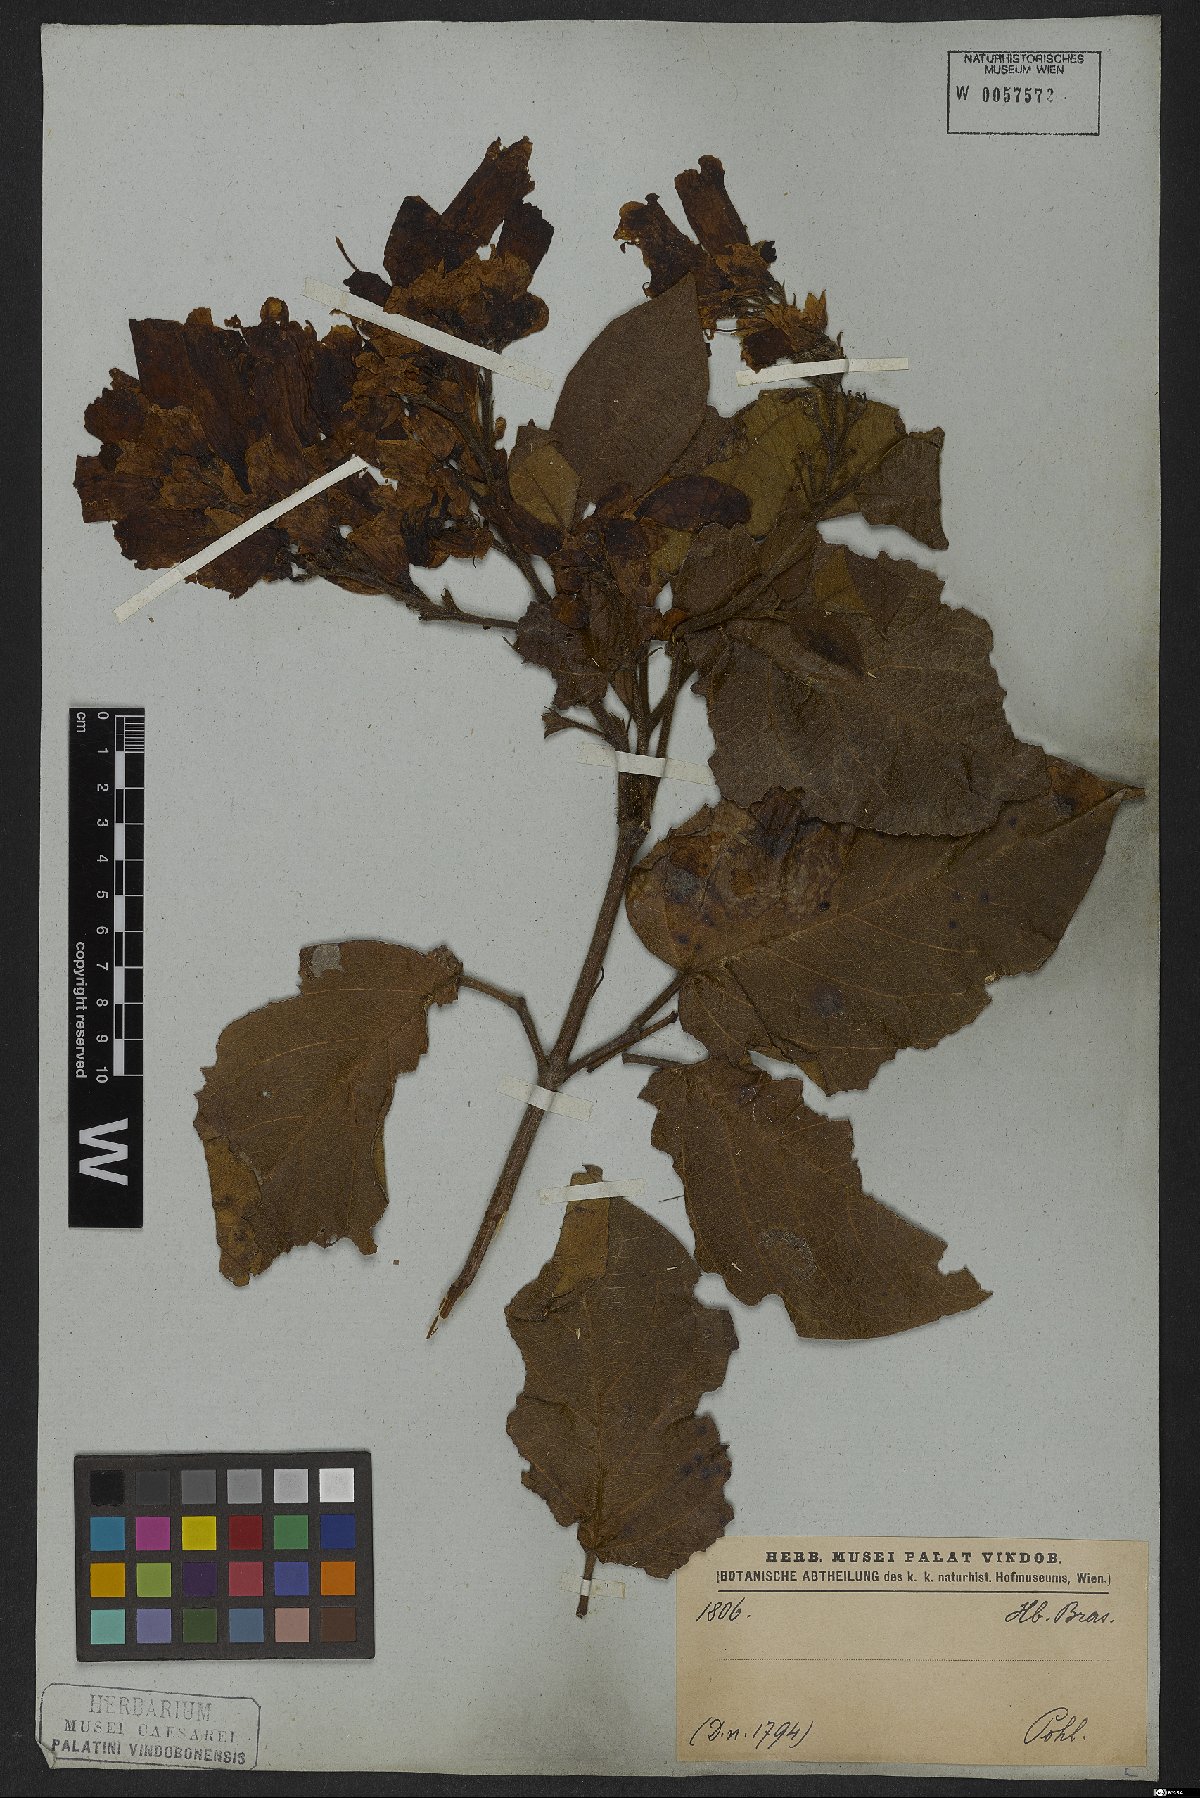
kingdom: Plantae
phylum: Tracheophyta
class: Magnoliopsida
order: Lamiales
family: Bignoniaceae
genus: Cuspidaria
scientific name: Cuspidaria sceptrum
